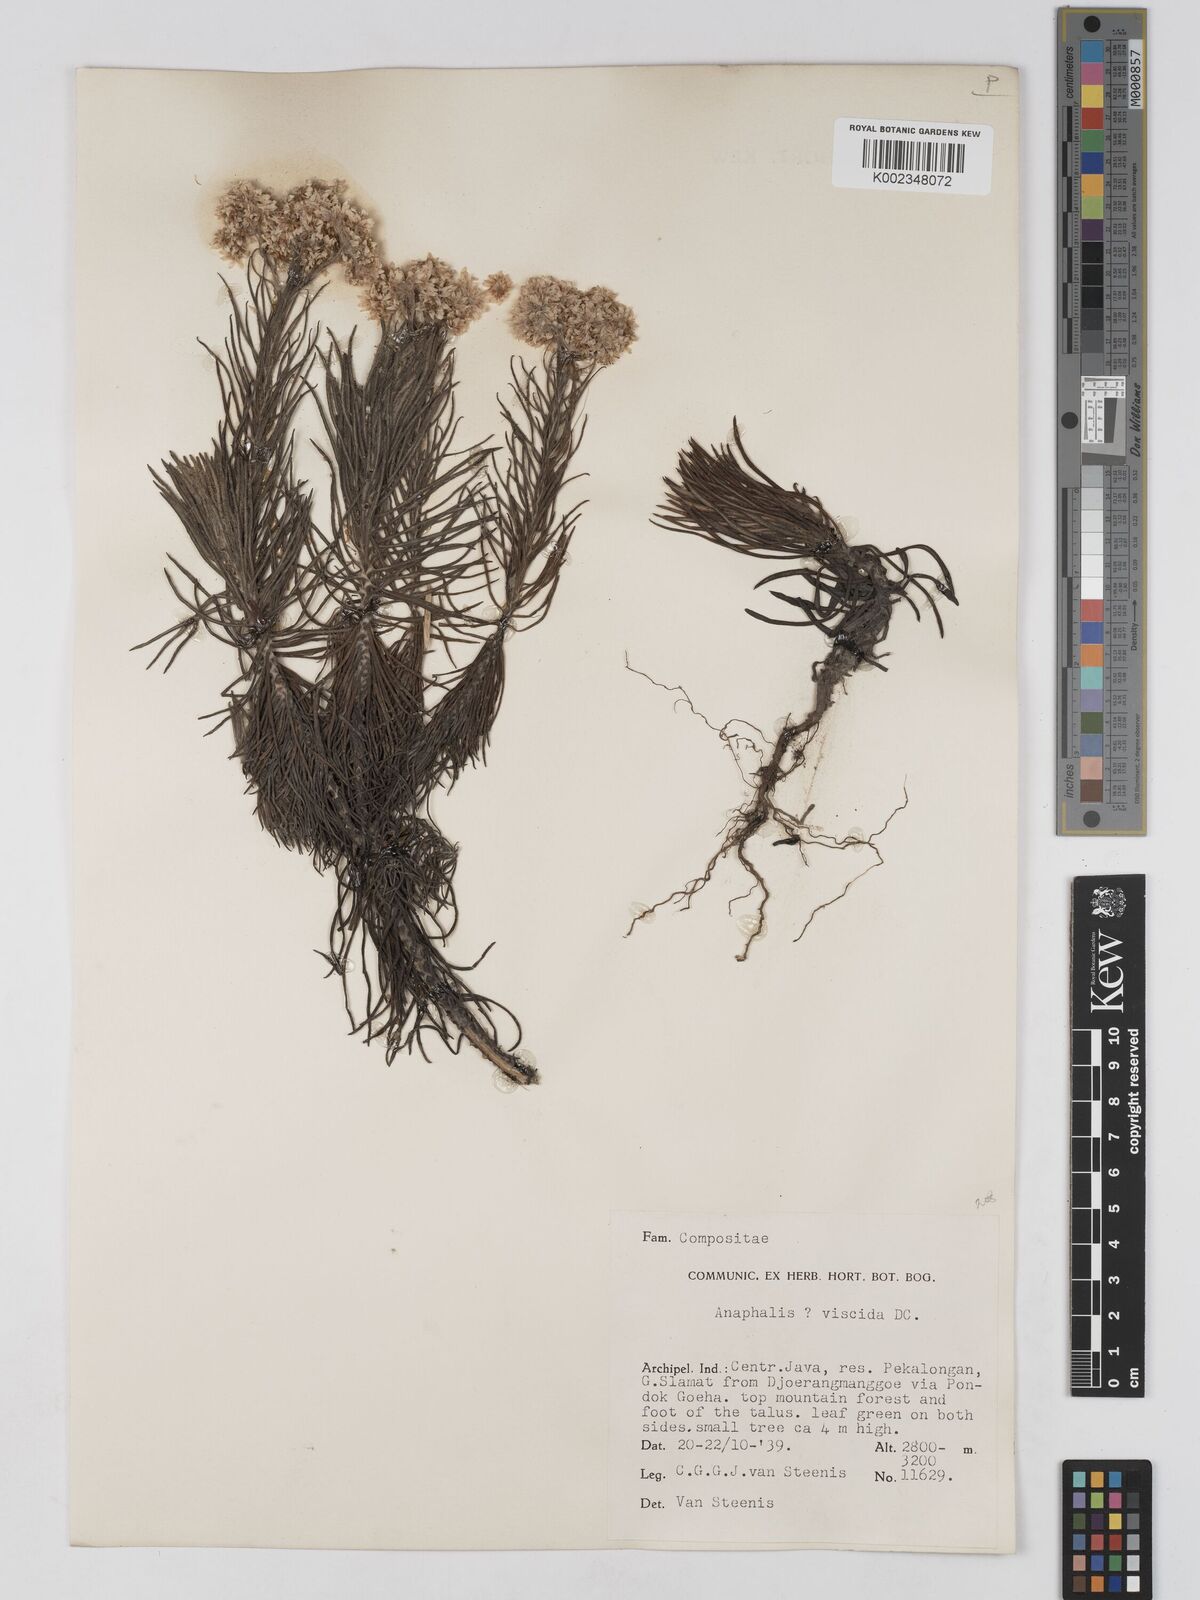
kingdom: Plantae
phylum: Tracheophyta
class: Magnoliopsida
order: Asterales
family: Asteraceae
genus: Anaphalis
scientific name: Anaphalis viscida
